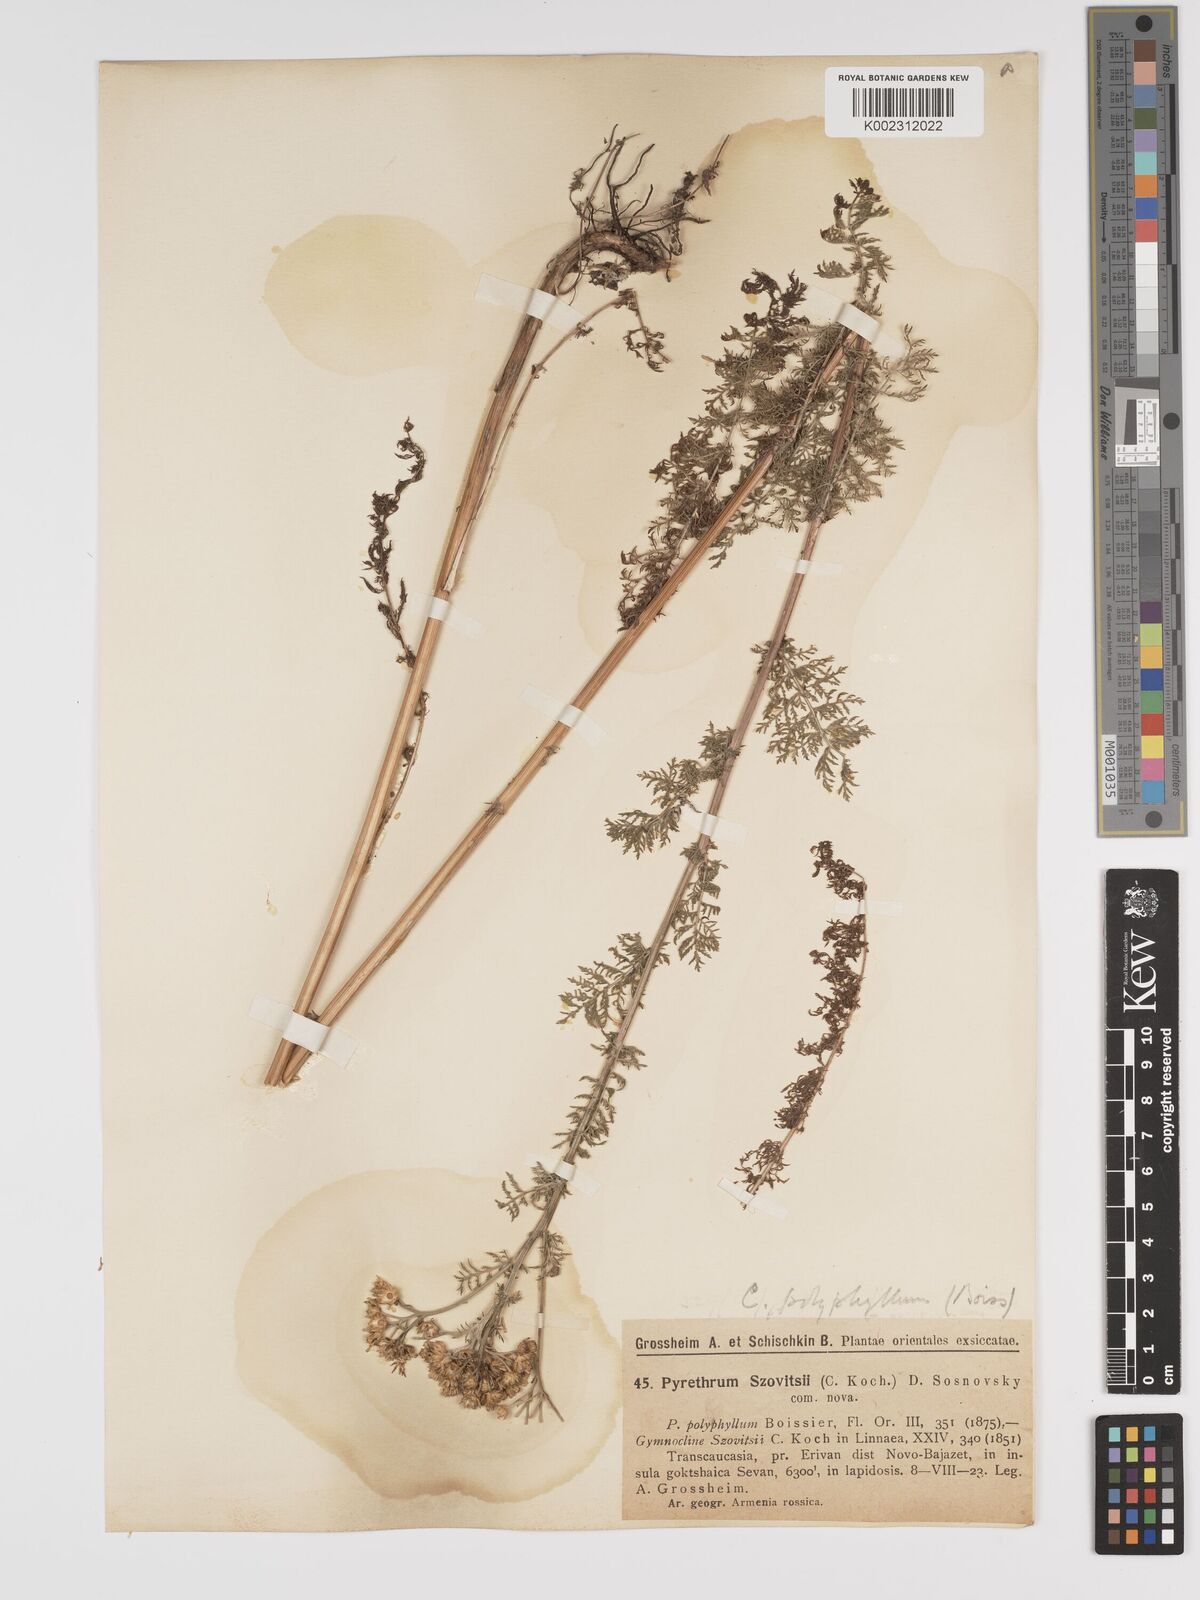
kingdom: Plantae
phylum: Tracheophyta
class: Magnoliopsida
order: Asterales
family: Asteraceae
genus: Tanacetum
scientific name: Tanacetum abrotanifolium
